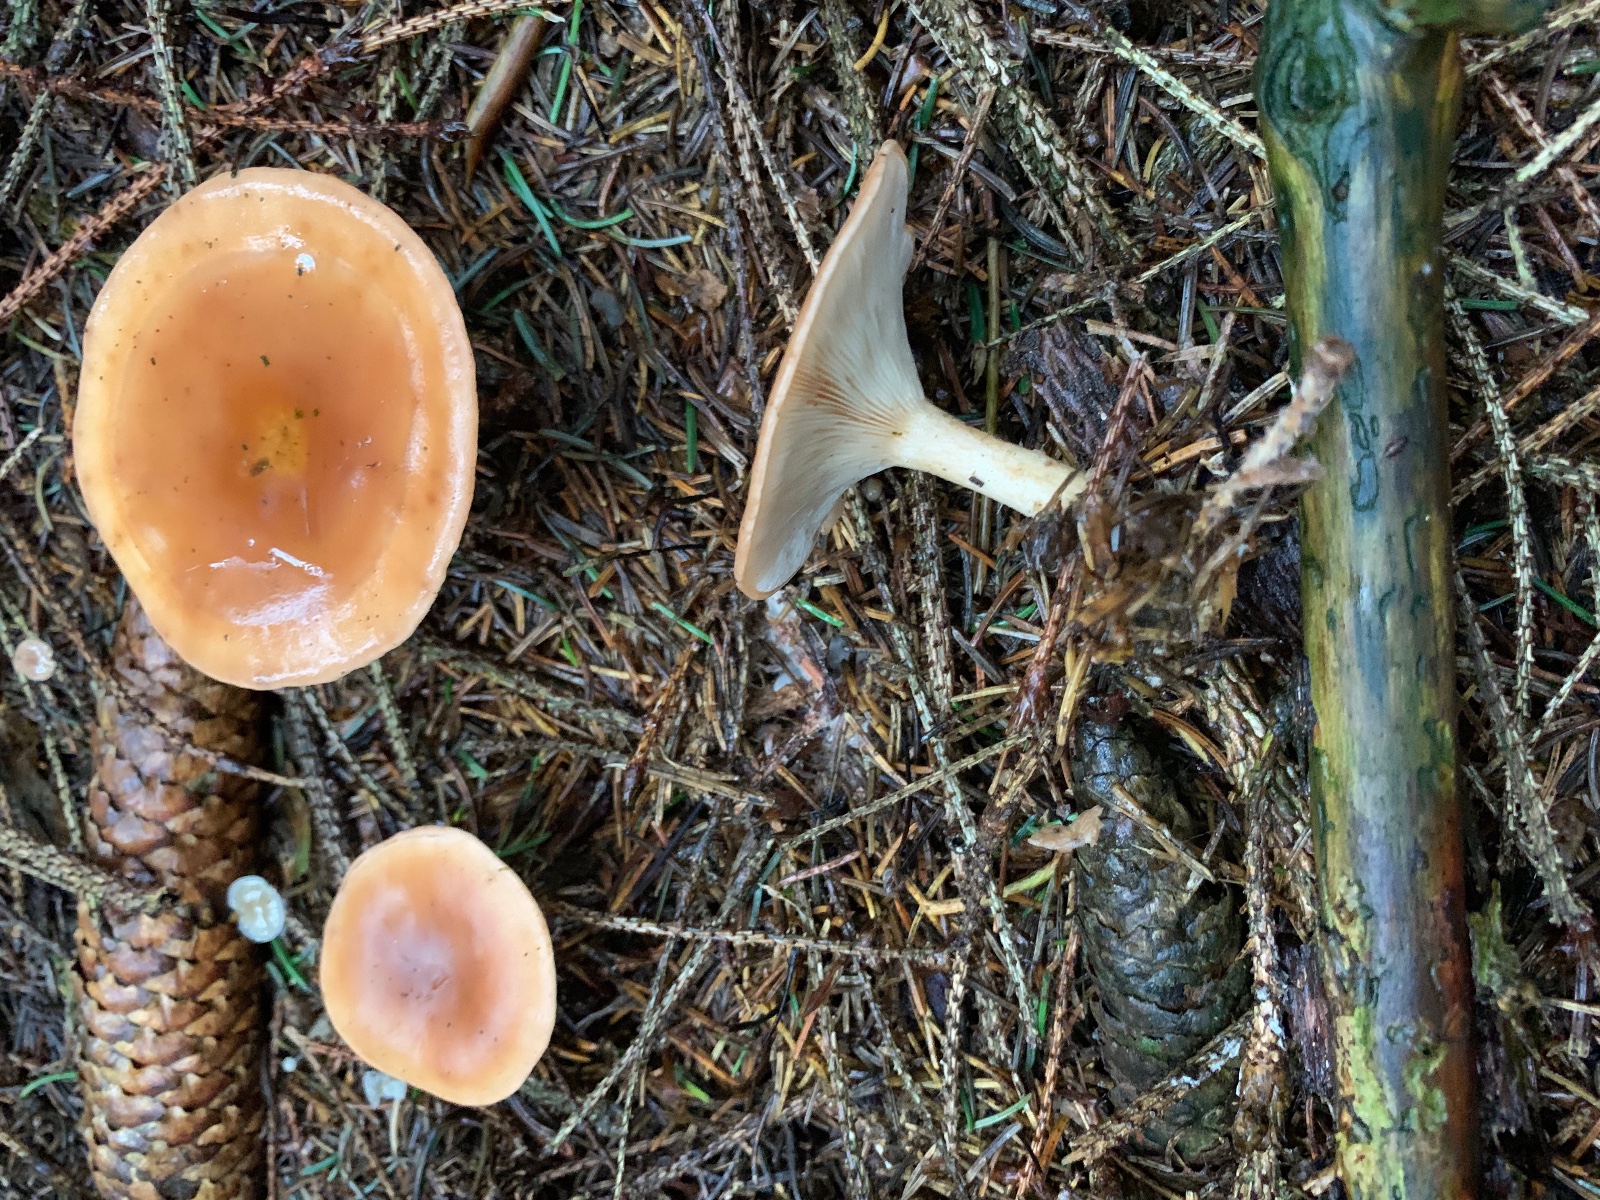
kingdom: Fungi
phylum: Basidiomycota
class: Agaricomycetes
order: Agaricales
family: Tricholomataceae
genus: Paralepista
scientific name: Paralepista flaccida
